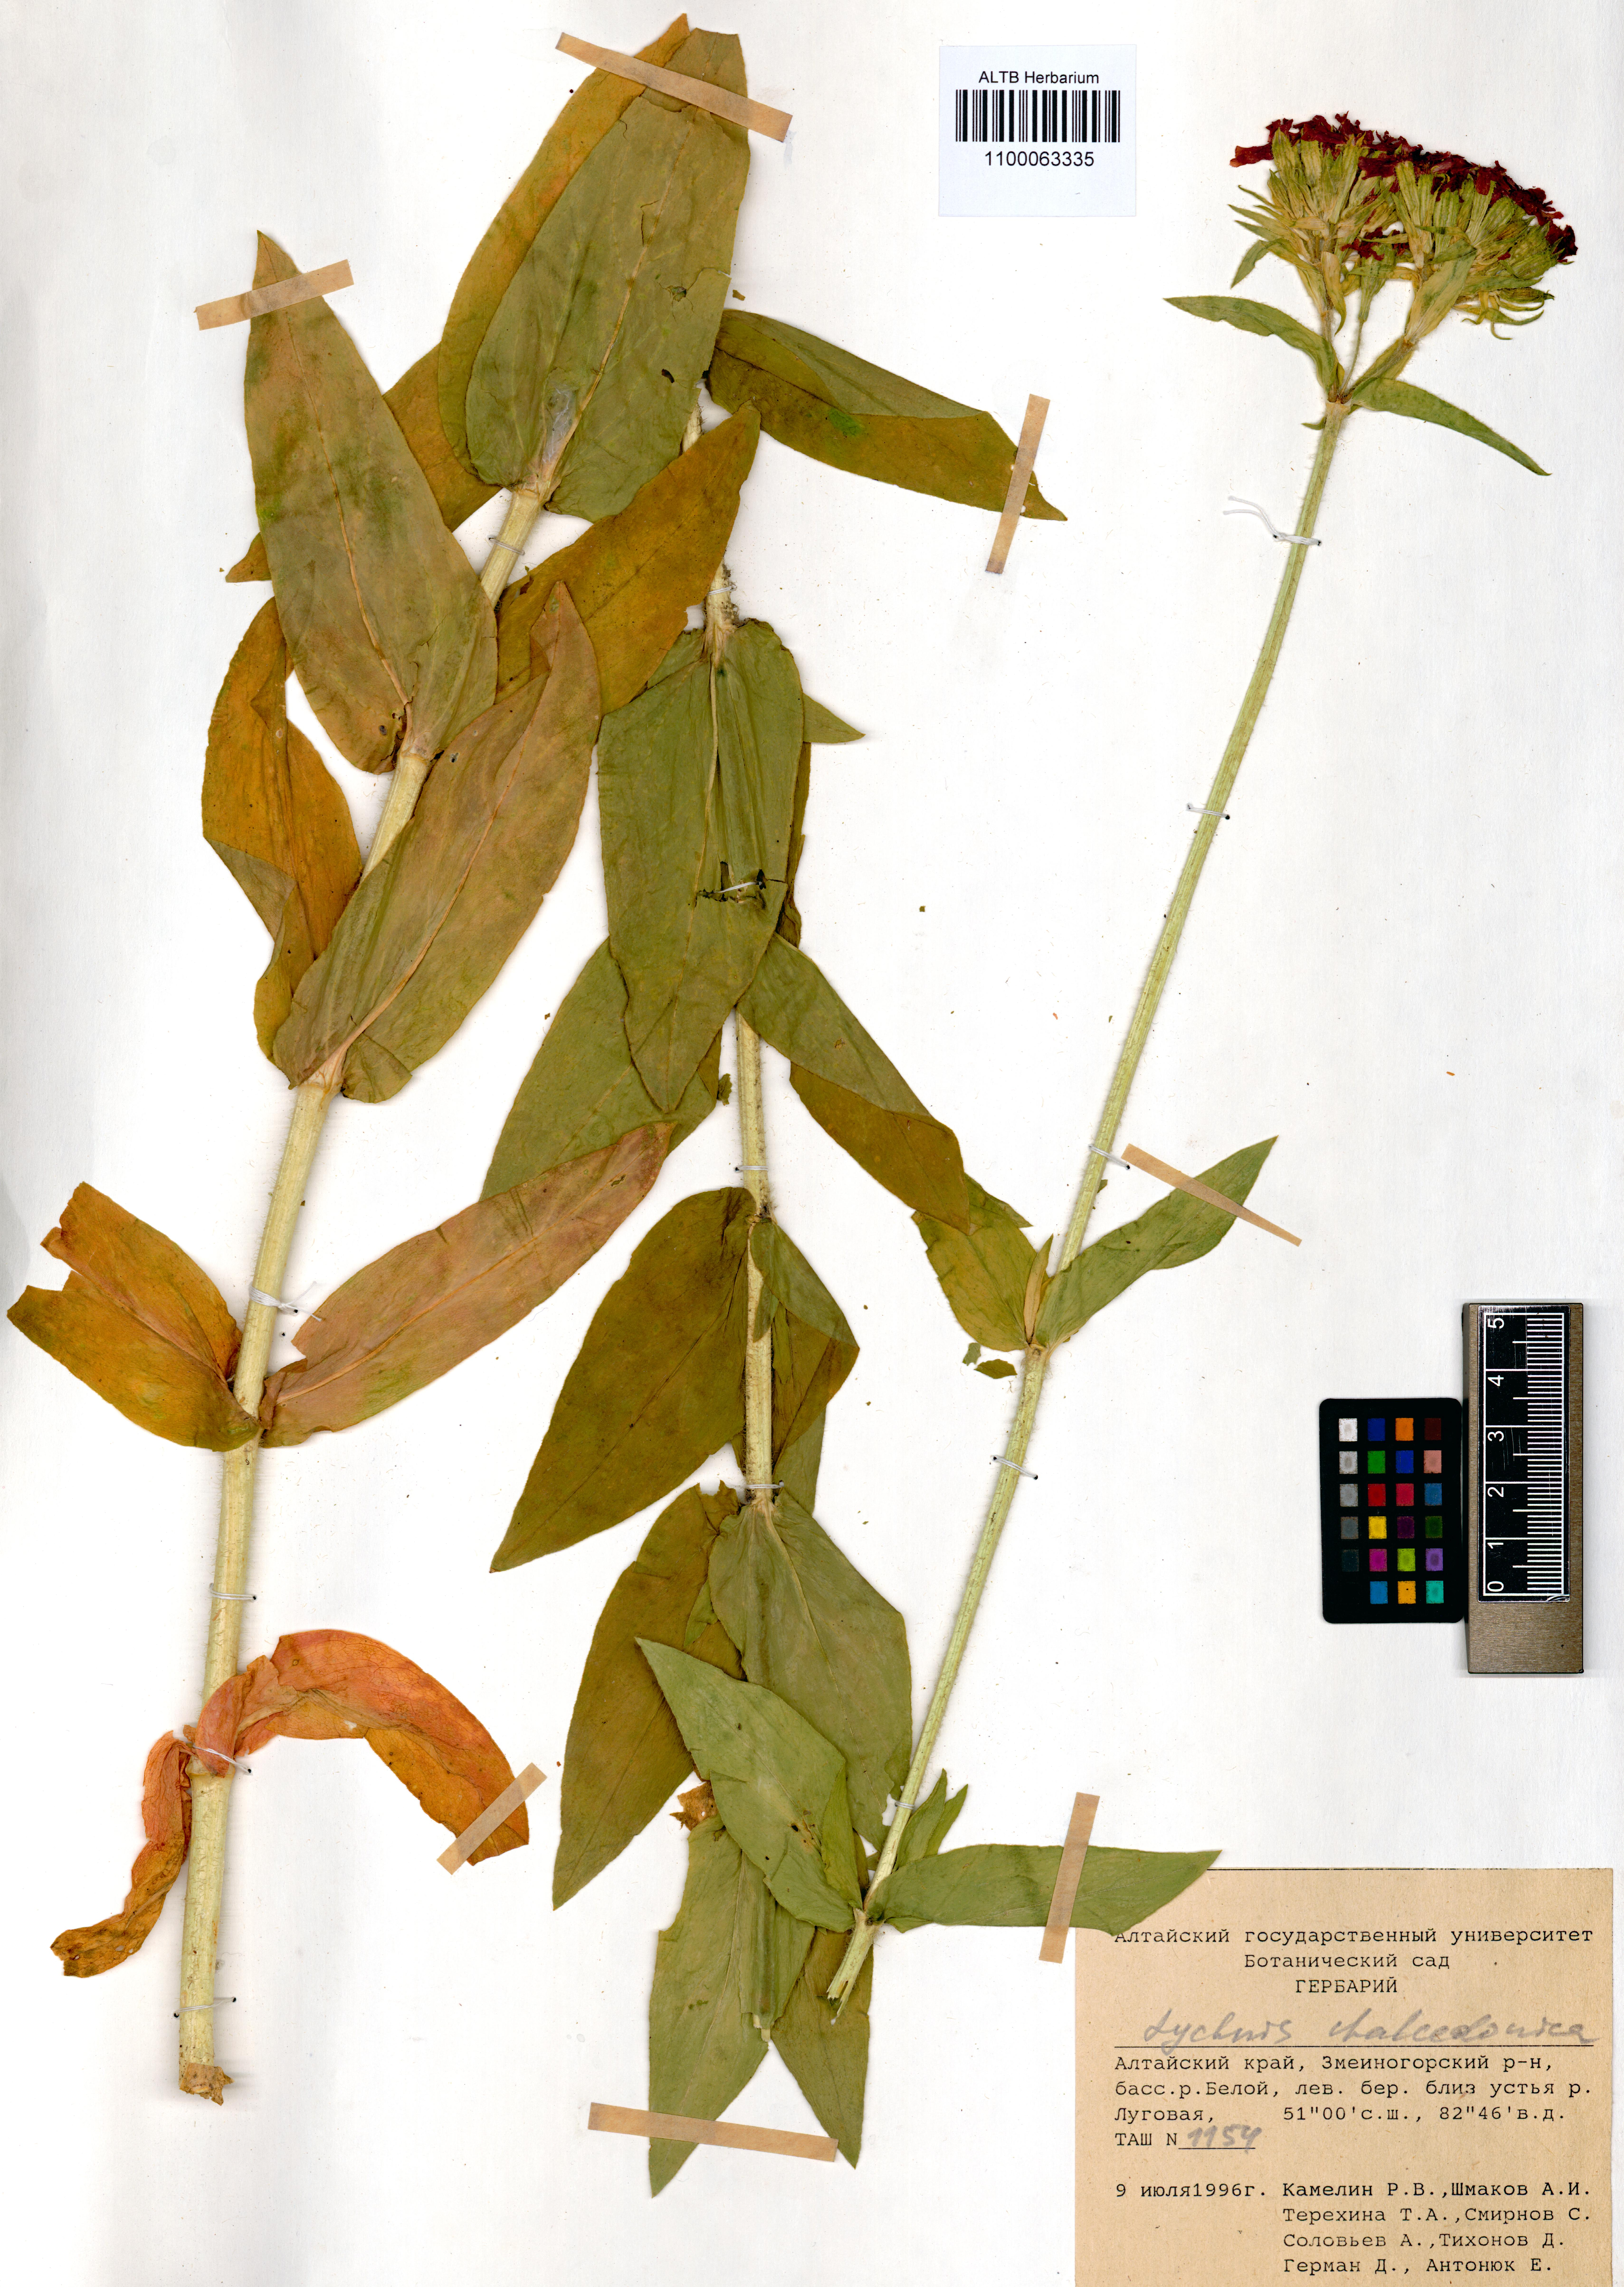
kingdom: Plantae
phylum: Tracheophyta
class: Magnoliopsida
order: Caryophyllales
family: Caryophyllaceae
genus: Silene
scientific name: Silene chalcedonica
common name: Maltese-cross
